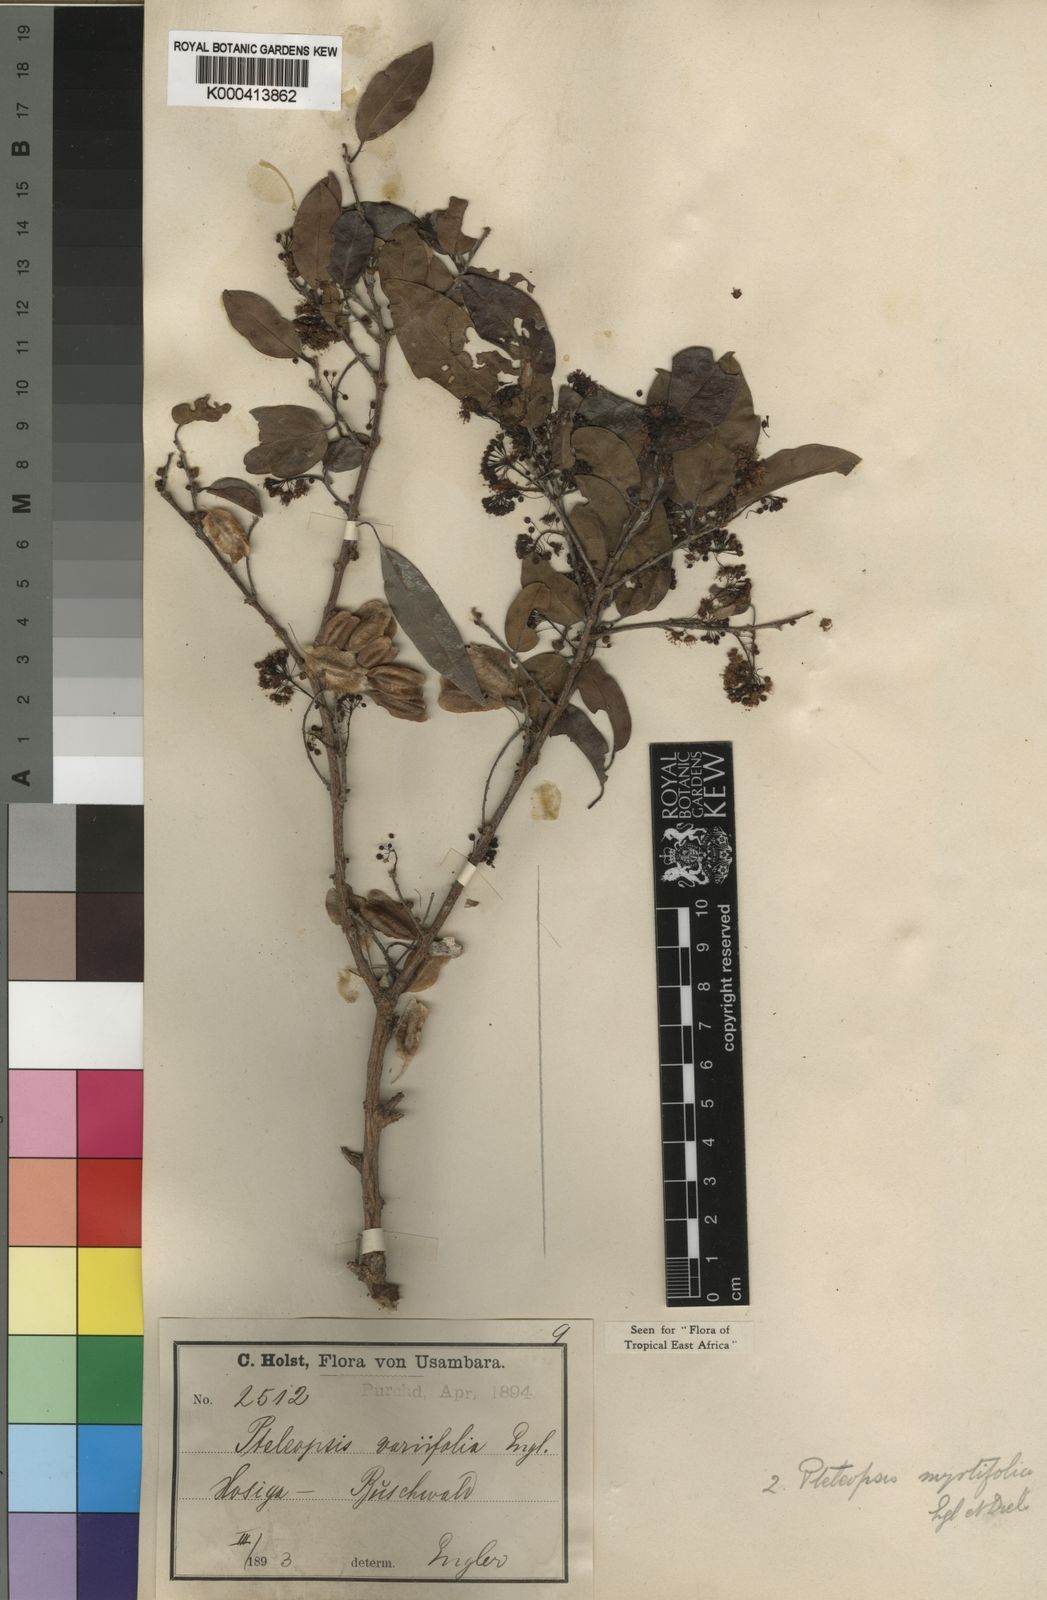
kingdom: Plantae
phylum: Tracheophyta
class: Magnoliopsida
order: Myrtales
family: Combretaceae
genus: Terminalia
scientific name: Terminalia myrtifolia
